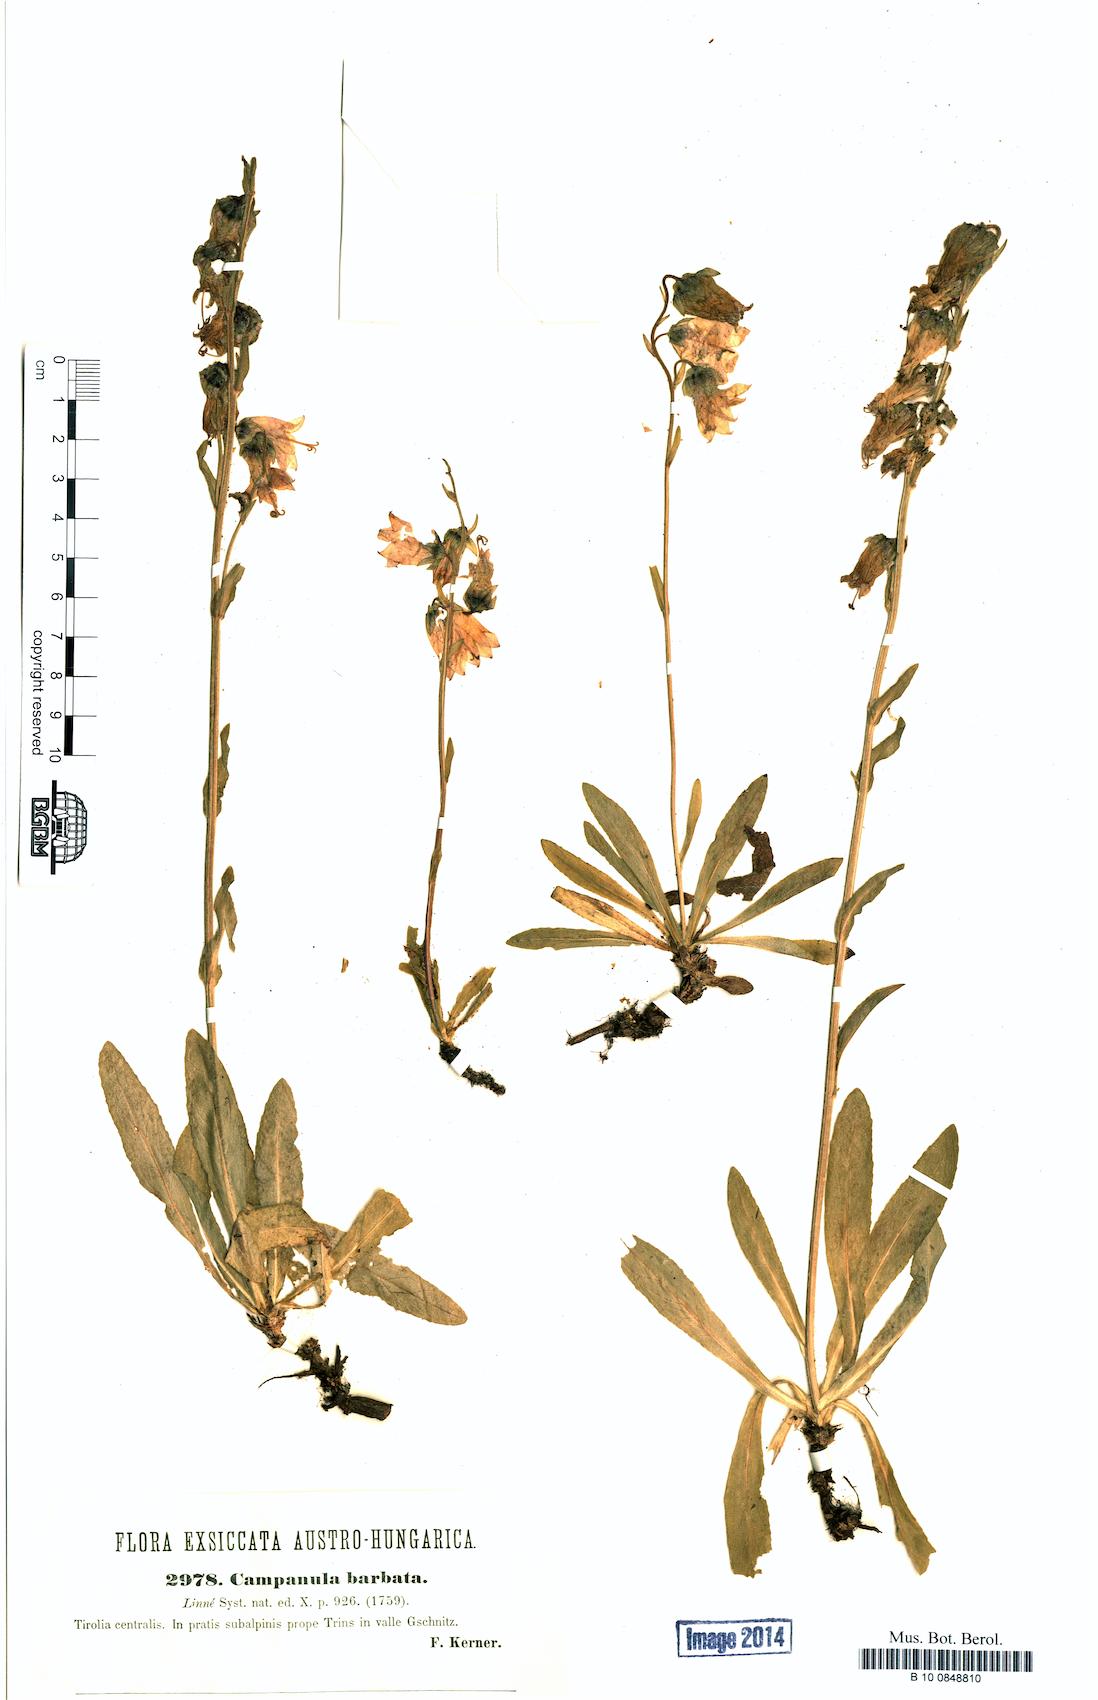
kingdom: Plantae
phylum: Tracheophyta
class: Magnoliopsida
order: Asterales
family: Campanulaceae
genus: Campanula
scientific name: Campanula barbata
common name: Bearded bellflower
